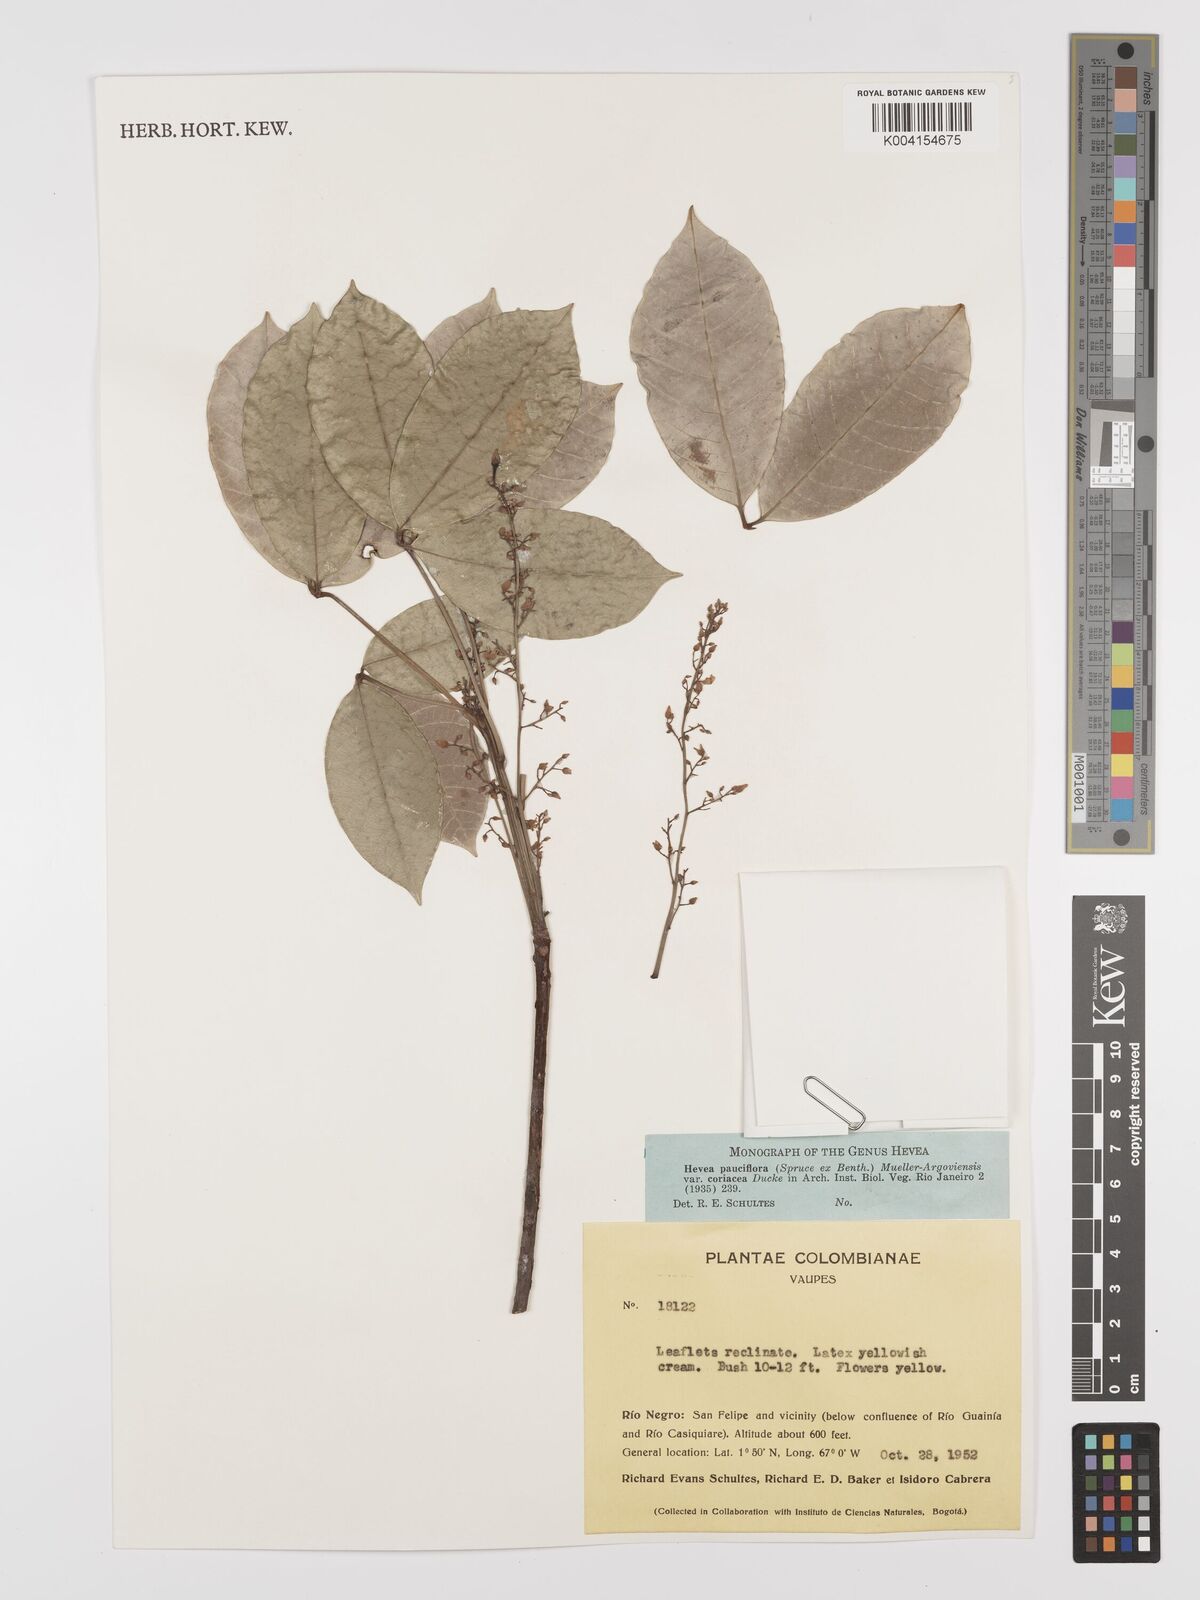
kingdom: Plantae
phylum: Tracheophyta
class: Magnoliopsida
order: Malpighiales
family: Euphorbiaceae
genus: Hevea
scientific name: Hevea pauciflora
